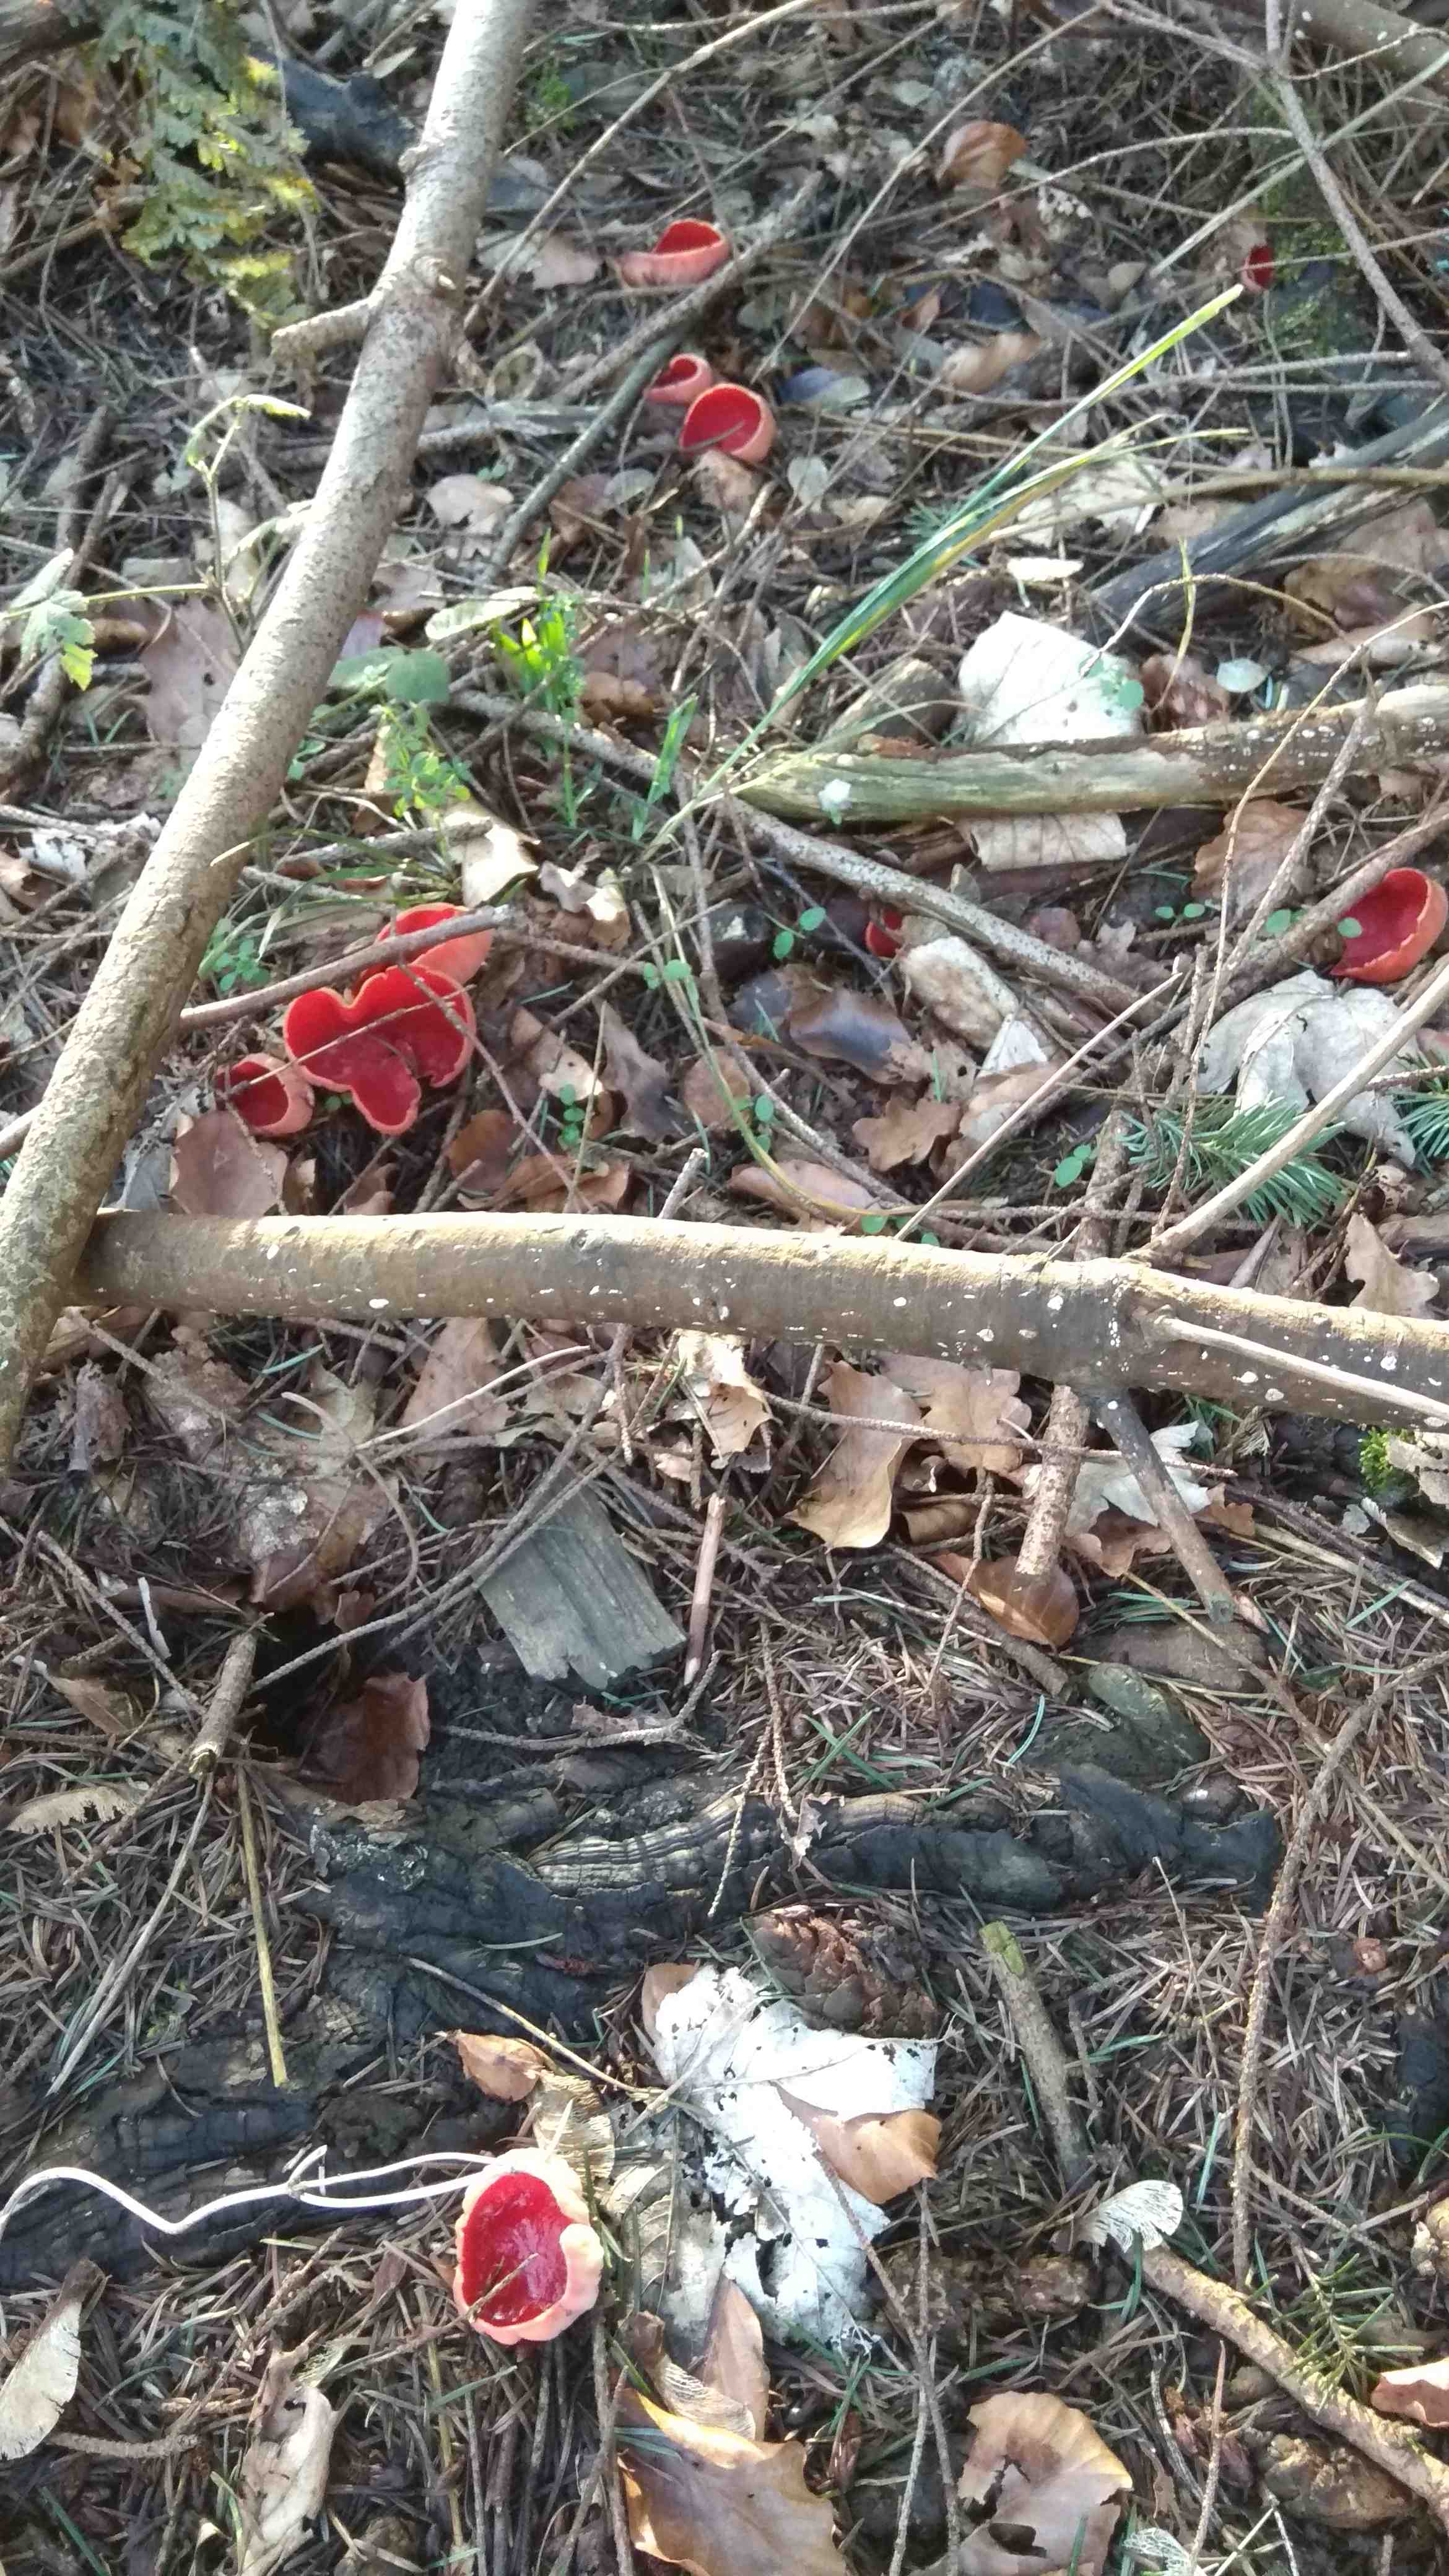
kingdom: Fungi
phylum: Ascomycota
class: Pezizomycetes
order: Pezizales
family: Sarcoscyphaceae
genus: Sarcoscypha
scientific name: Sarcoscypha austriaca
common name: krølhåret pragtbæger
